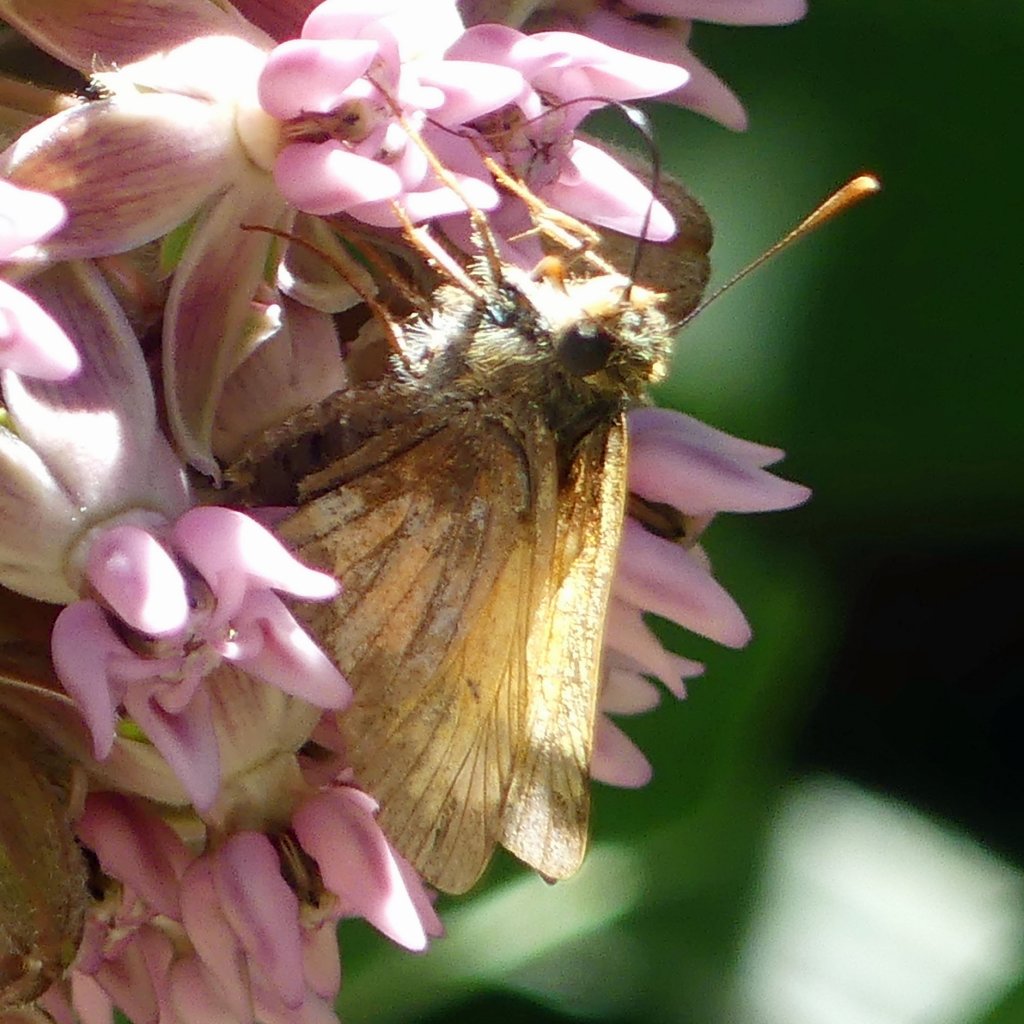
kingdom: Animalia
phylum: Arthropoda
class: Insecta
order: Lepidoptera
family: Hesperiidae
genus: Lon
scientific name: Lon hobomok
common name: Hobomok Skipper
